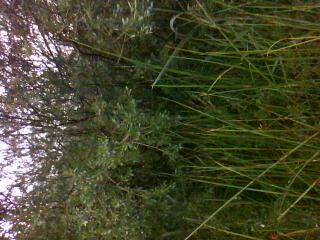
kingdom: Plantae
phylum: Tracheophyta
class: Liliopsida
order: Poales
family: Poaceae
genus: Bromus
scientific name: Bromus ciliatus
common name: Fringe brome
